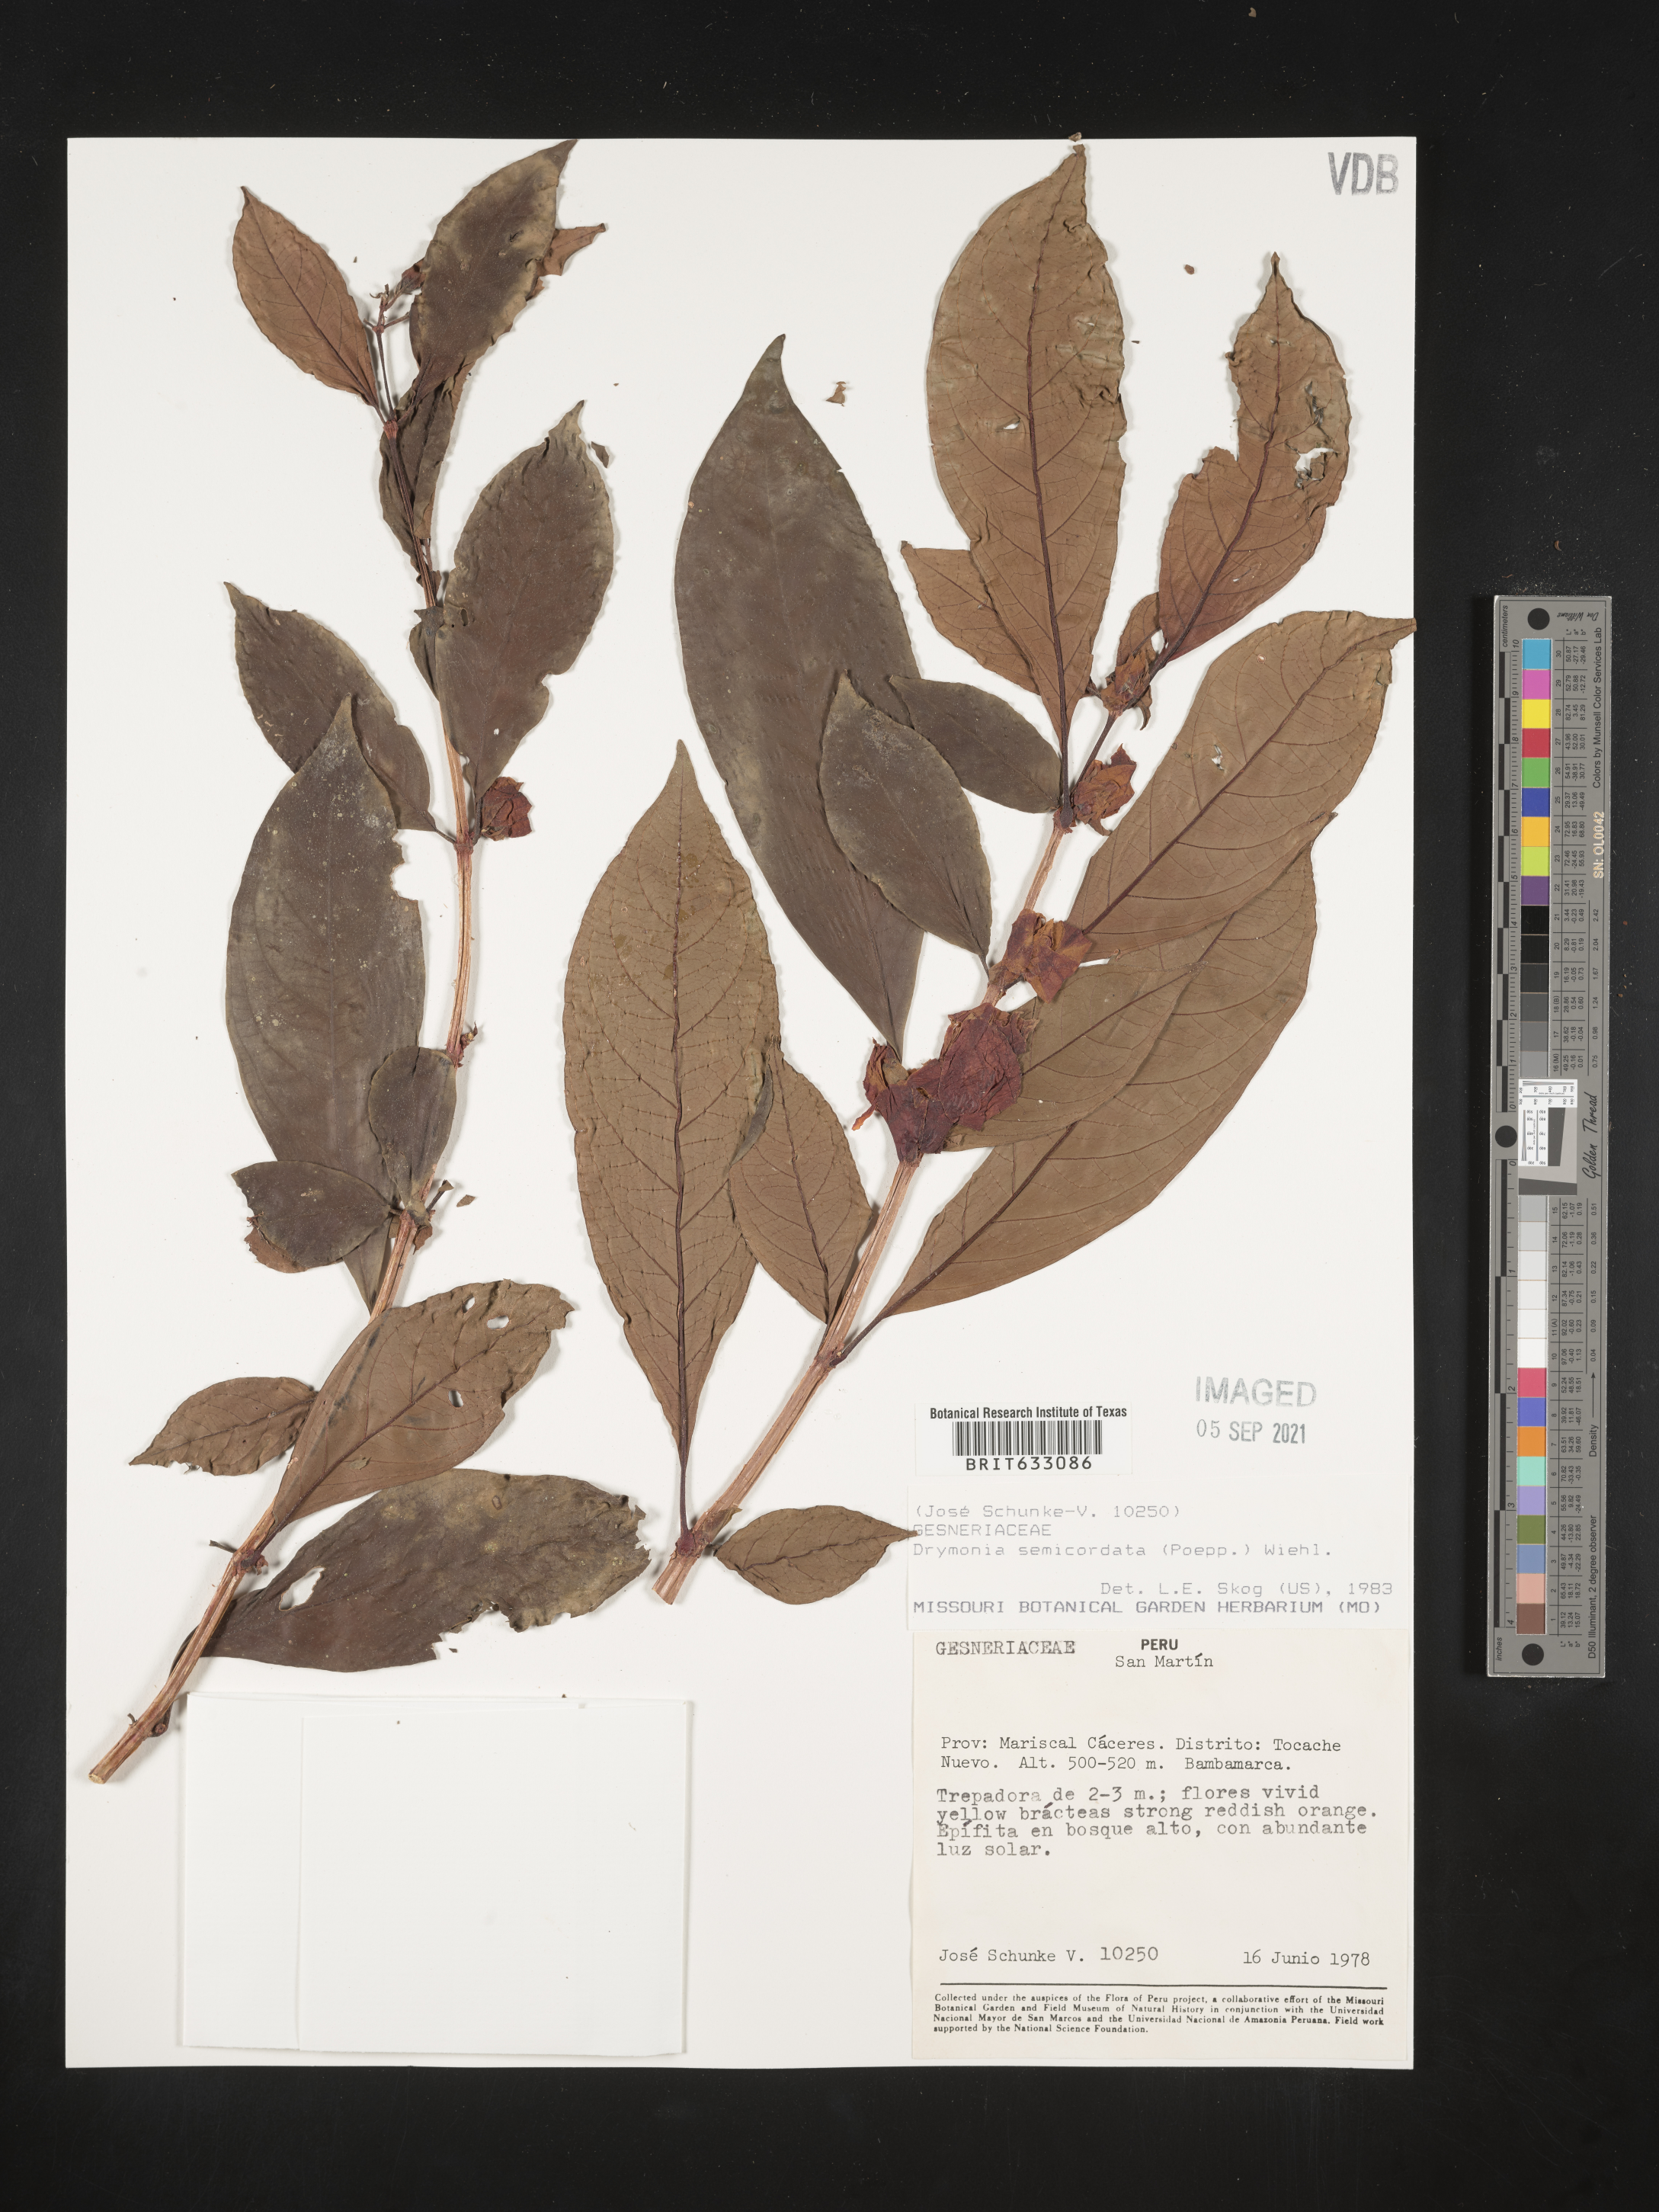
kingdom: Plantae
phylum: Tracheophyta
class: Magnoliopsida
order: Lamiales
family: Gesneriaceae
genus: Drymonia
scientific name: Drymonia
